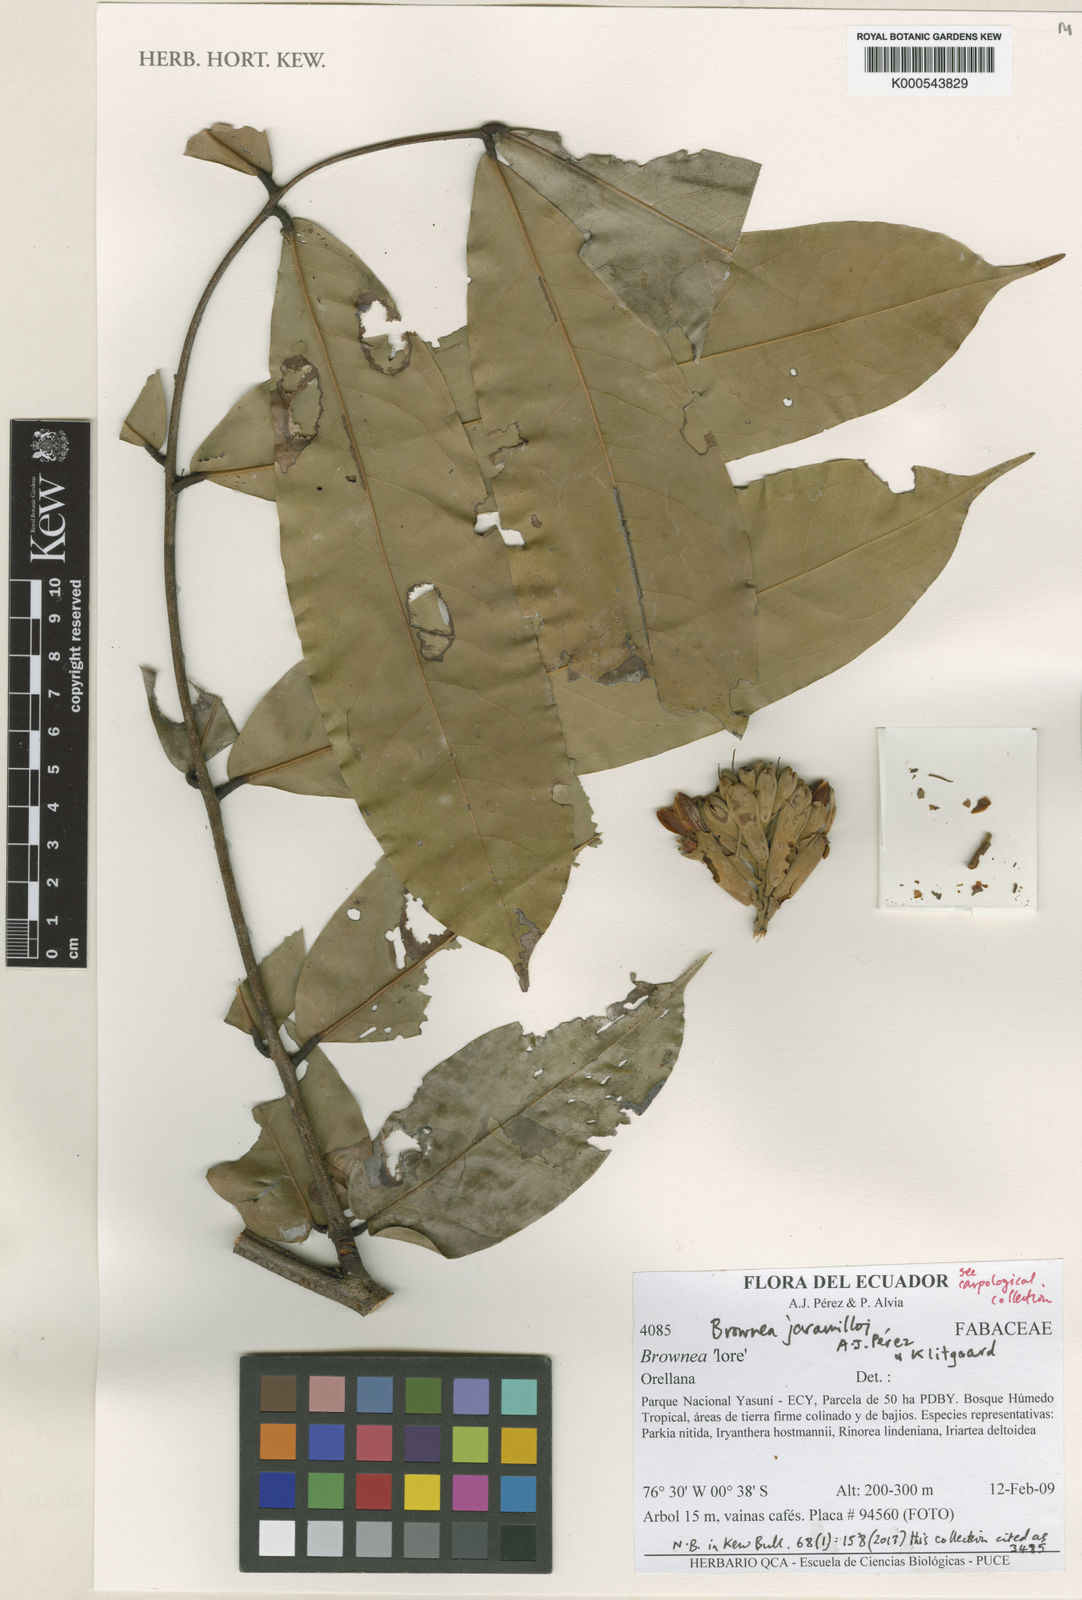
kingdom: Plantae
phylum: Tracheophyta
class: Magnoliopsida
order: Fabales
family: Fabaceae
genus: Brownea
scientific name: Brownea
